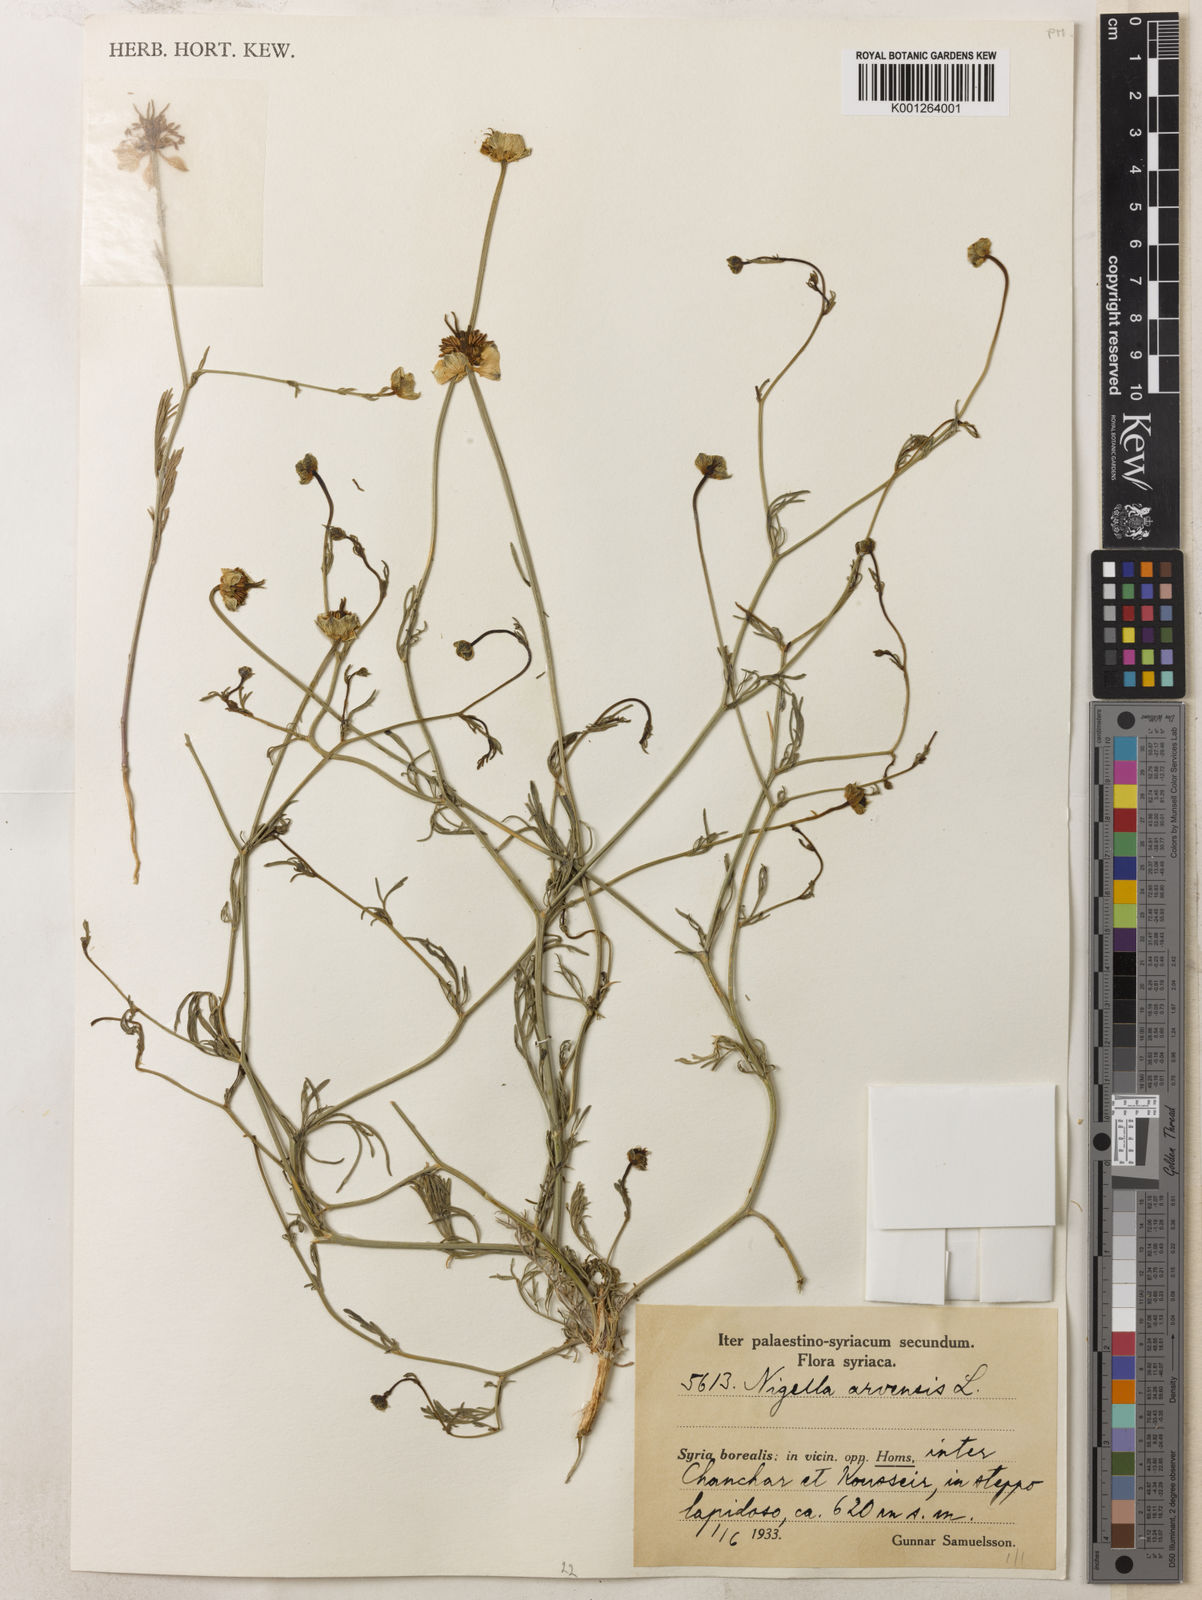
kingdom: Plantae
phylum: Tracheophyta
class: Magnoliopsida
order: Ranunculales
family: Ranunculaceae
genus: Nigella
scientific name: Nigella arvensis
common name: Wild fennel-flower
